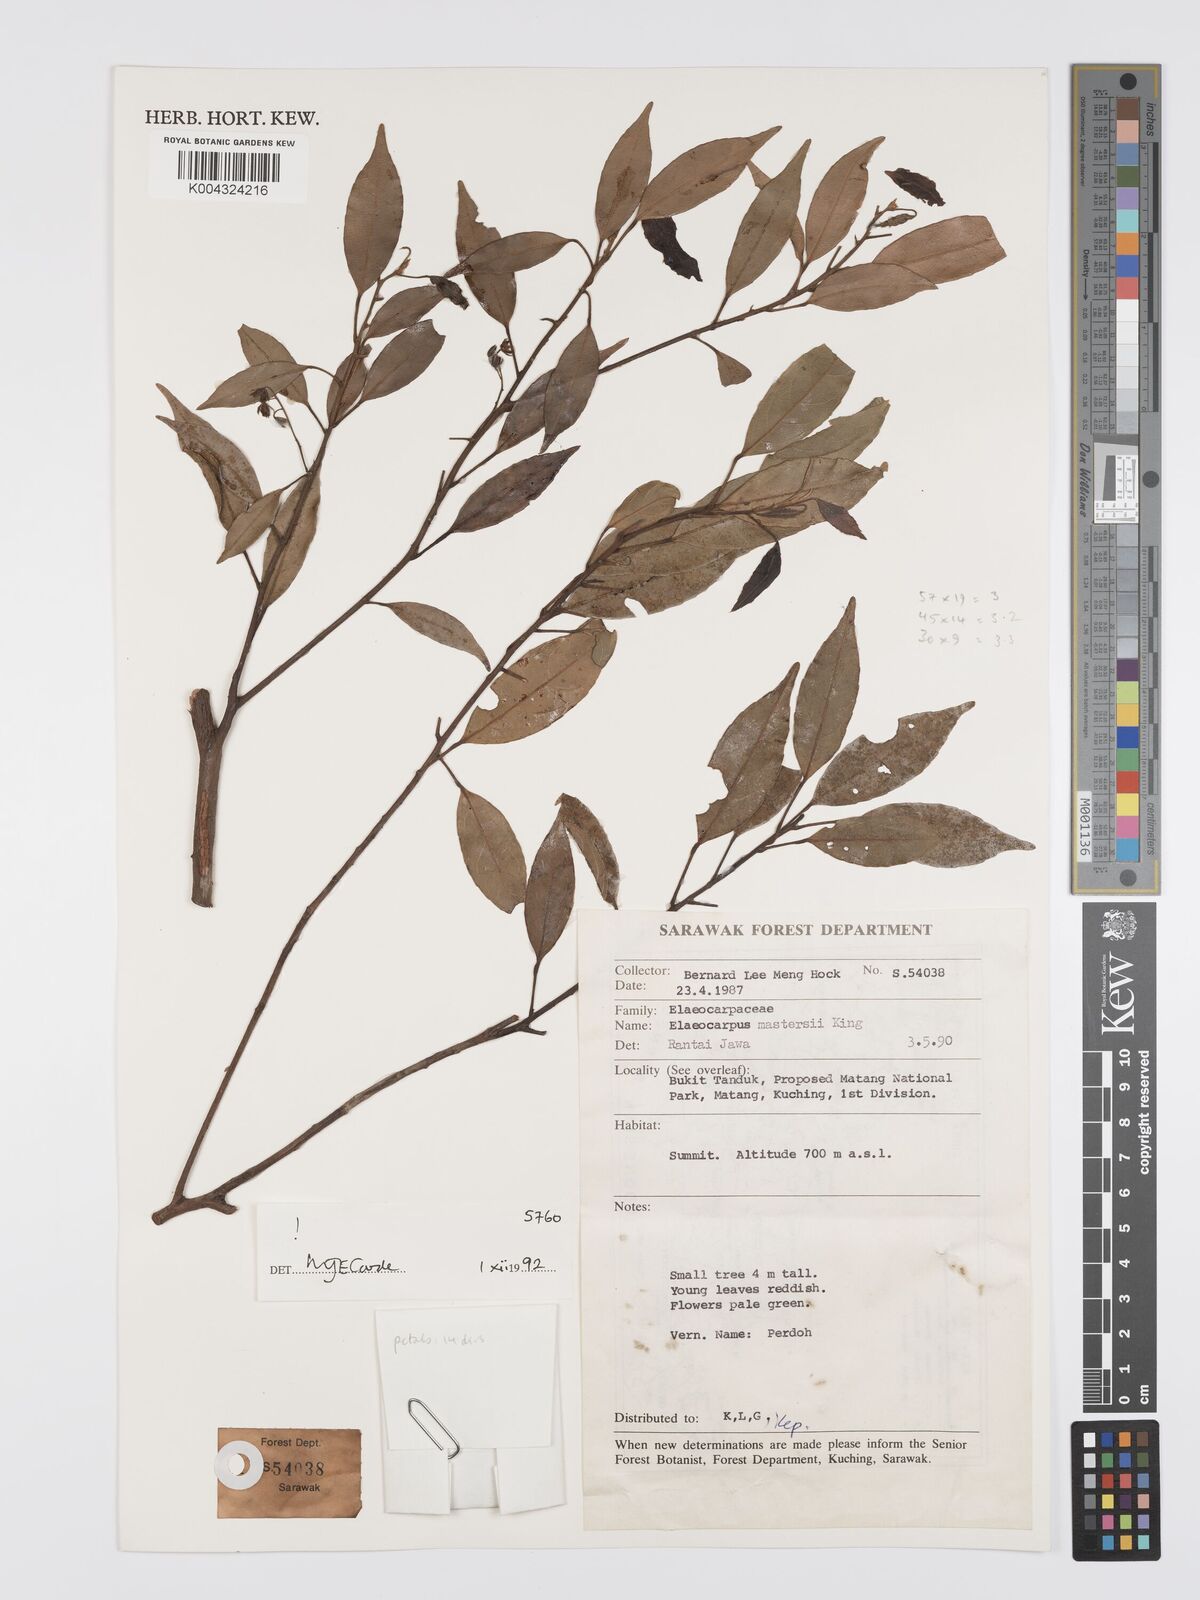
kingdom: Plantae
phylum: Tracheophyta
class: Magnoliopsida
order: Oxalidales
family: Elaeocarpaceae
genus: Elaeocarpus
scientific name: Elaeocarpus mastersii
